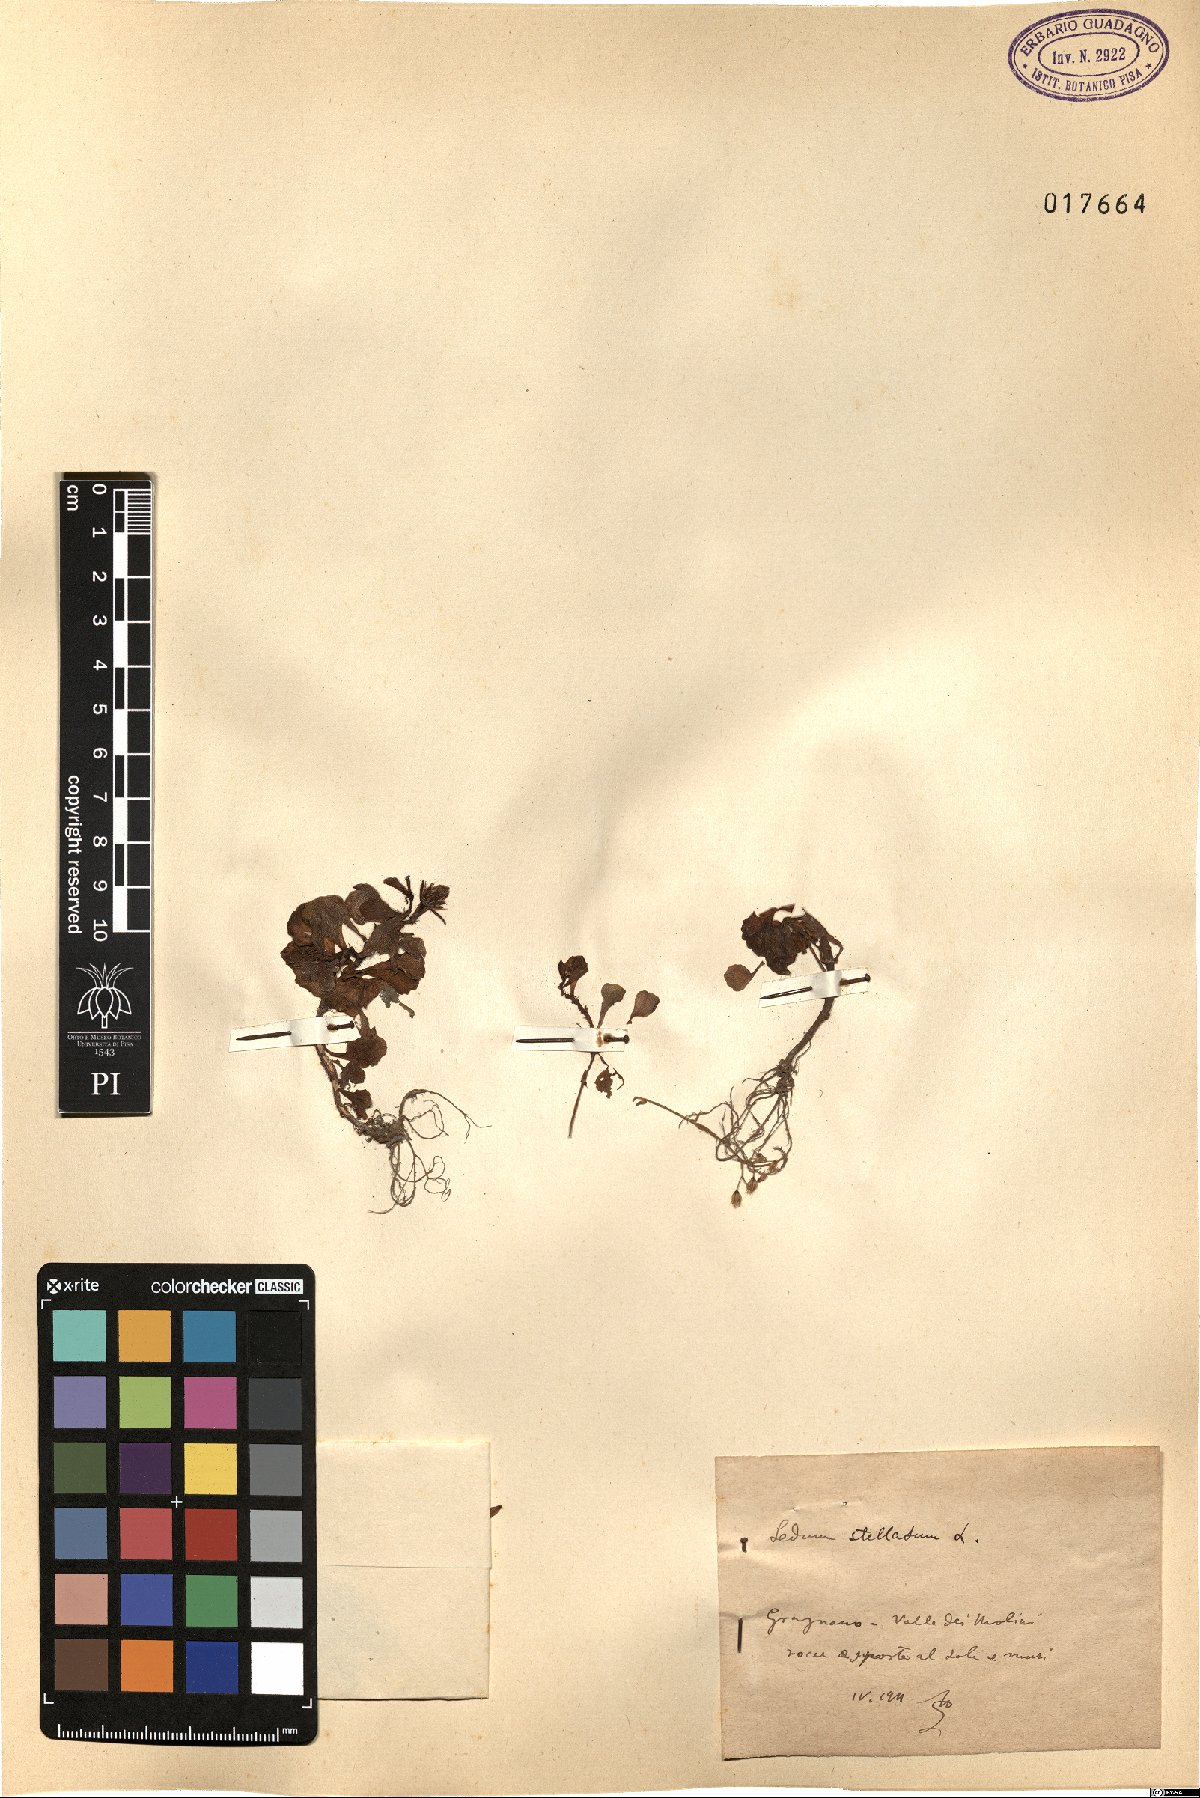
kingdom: Plantae
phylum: Tracheophyta
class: Magnoliopsida
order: Saxifragales
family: Crassulaceae
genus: Phedimus
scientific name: Phedimus stellatus
